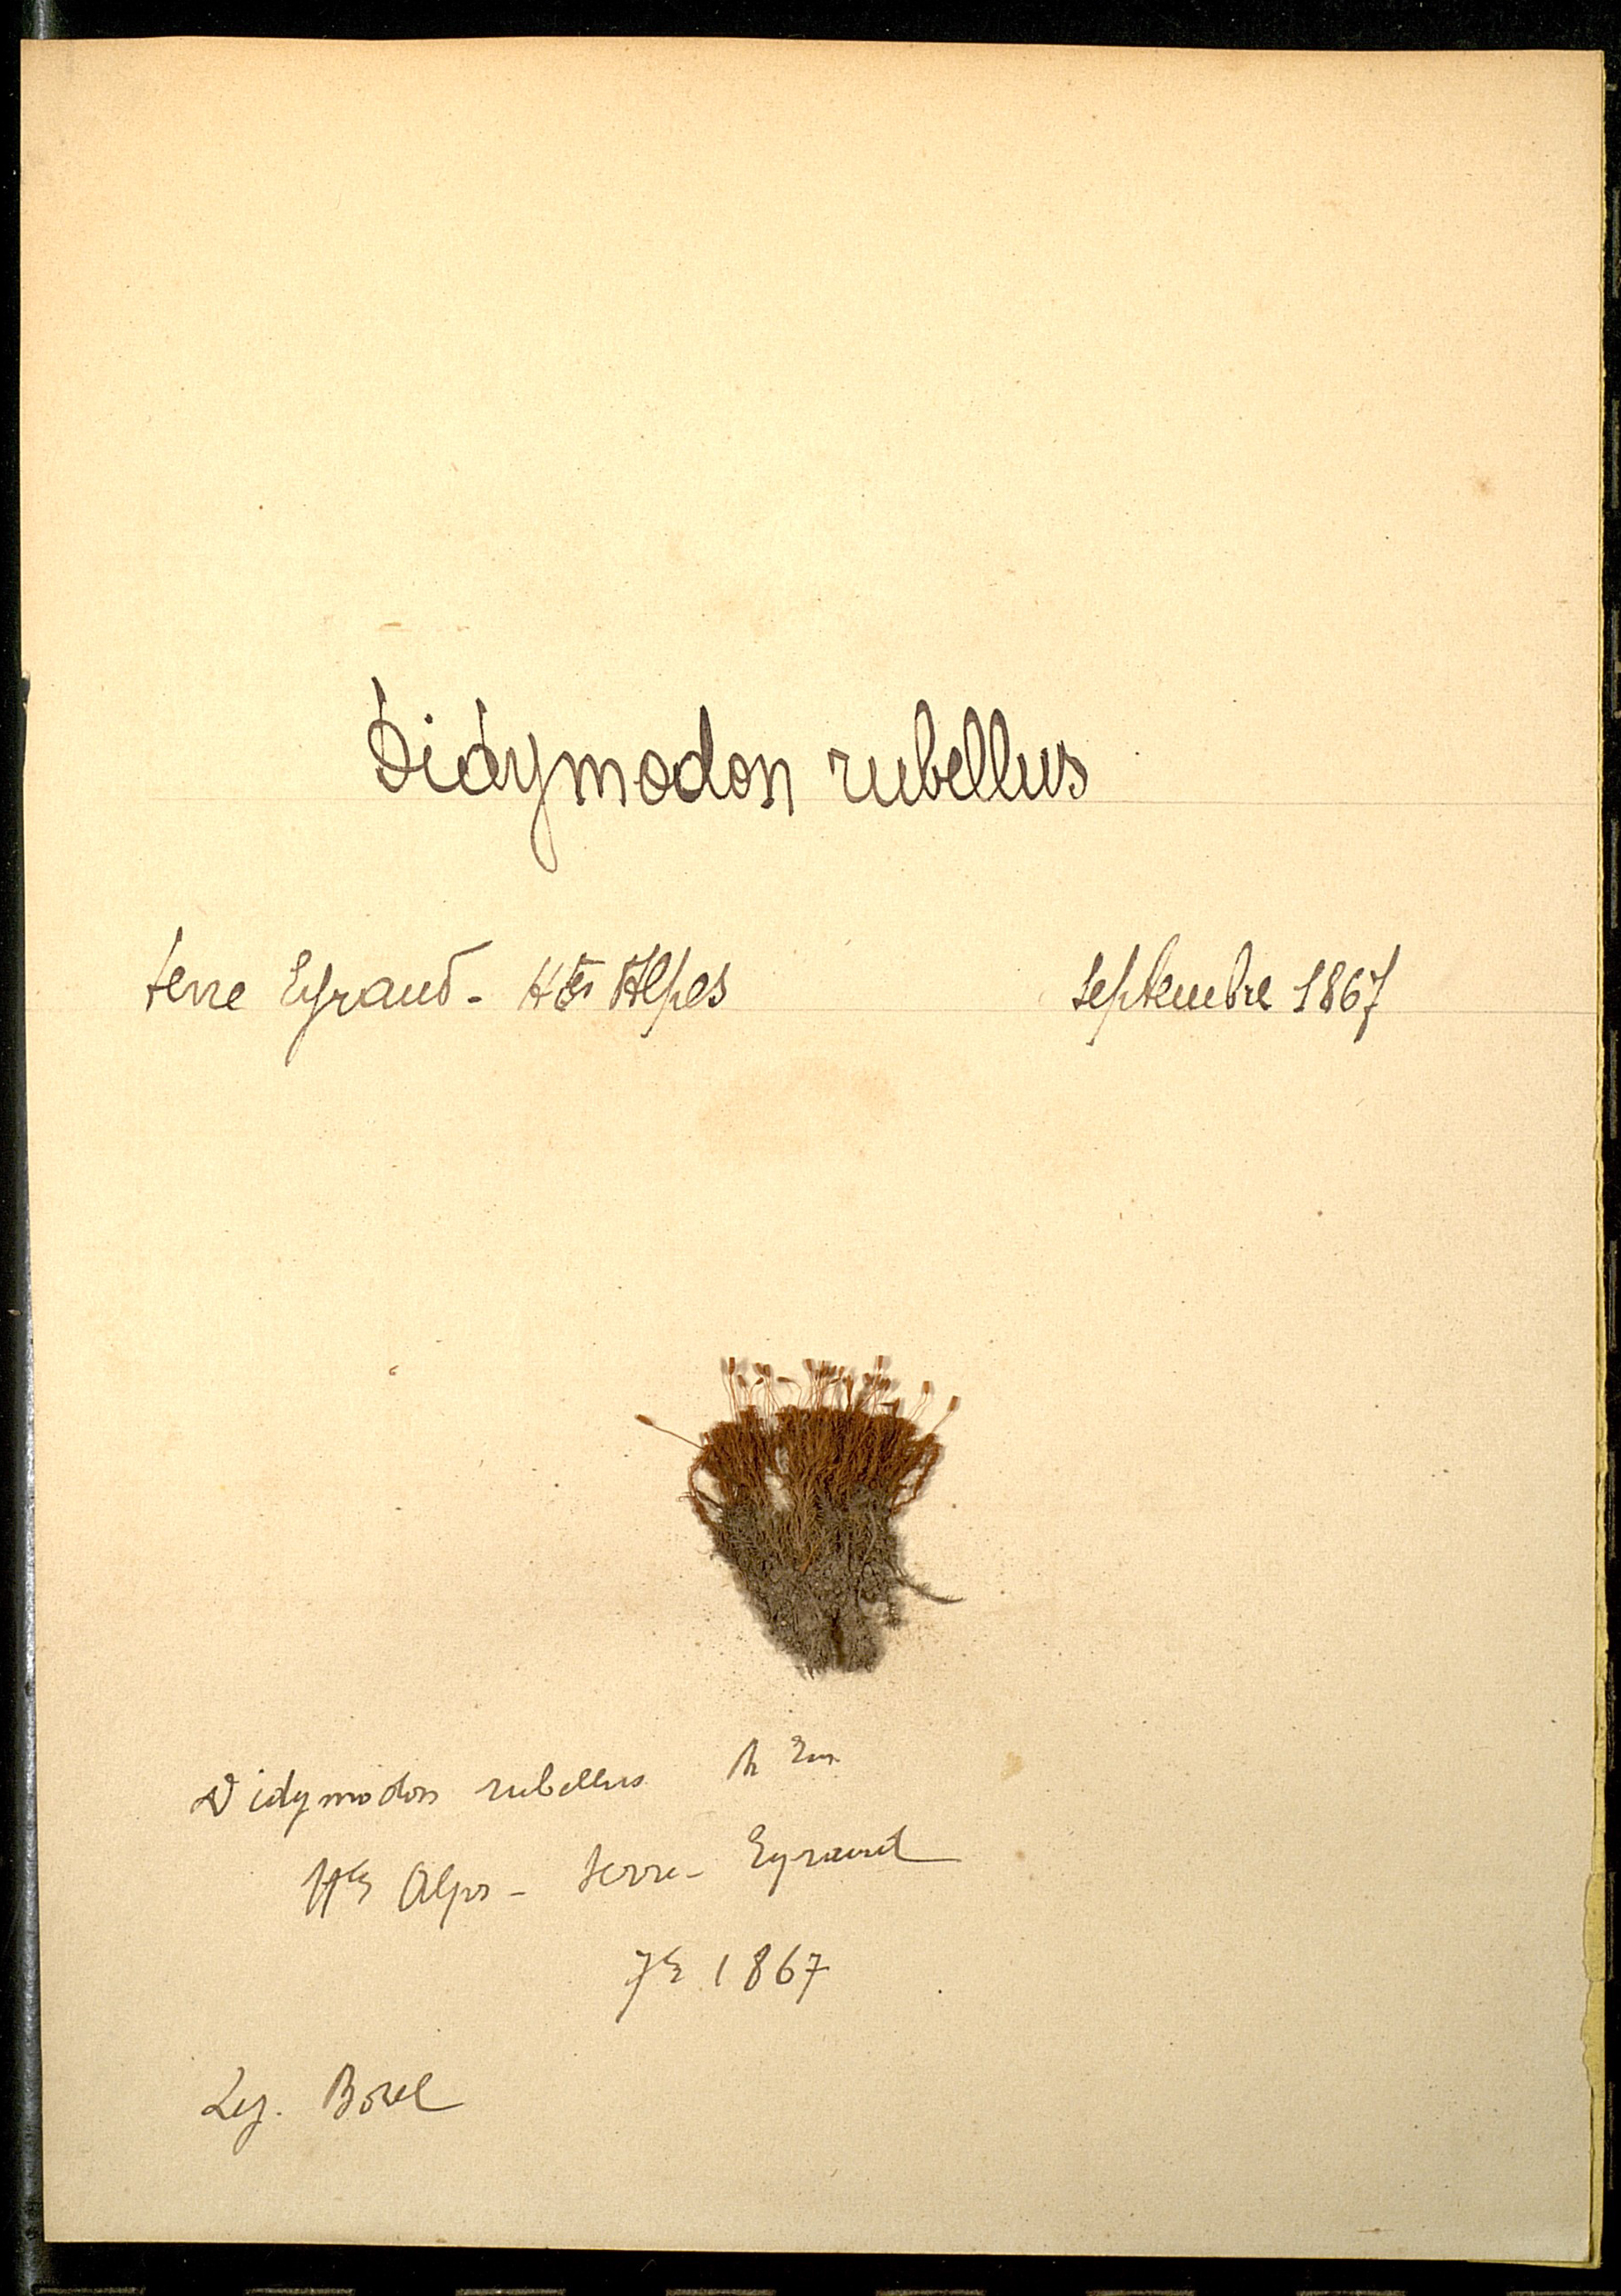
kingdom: Plantae
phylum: Bryophyta
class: Bryopsida
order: Pottiales
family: Pottiaceae
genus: Bryoerythrophyllum
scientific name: Bryoerythrophyllum recurvirostrum
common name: Red beard moss
